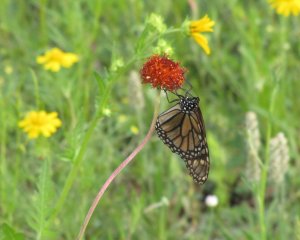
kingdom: Animalia
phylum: Arthropoda
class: Insecta
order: Lepidoptera
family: Nymphalidae
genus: Danaus
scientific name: Danaus plexippus
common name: Monarch
